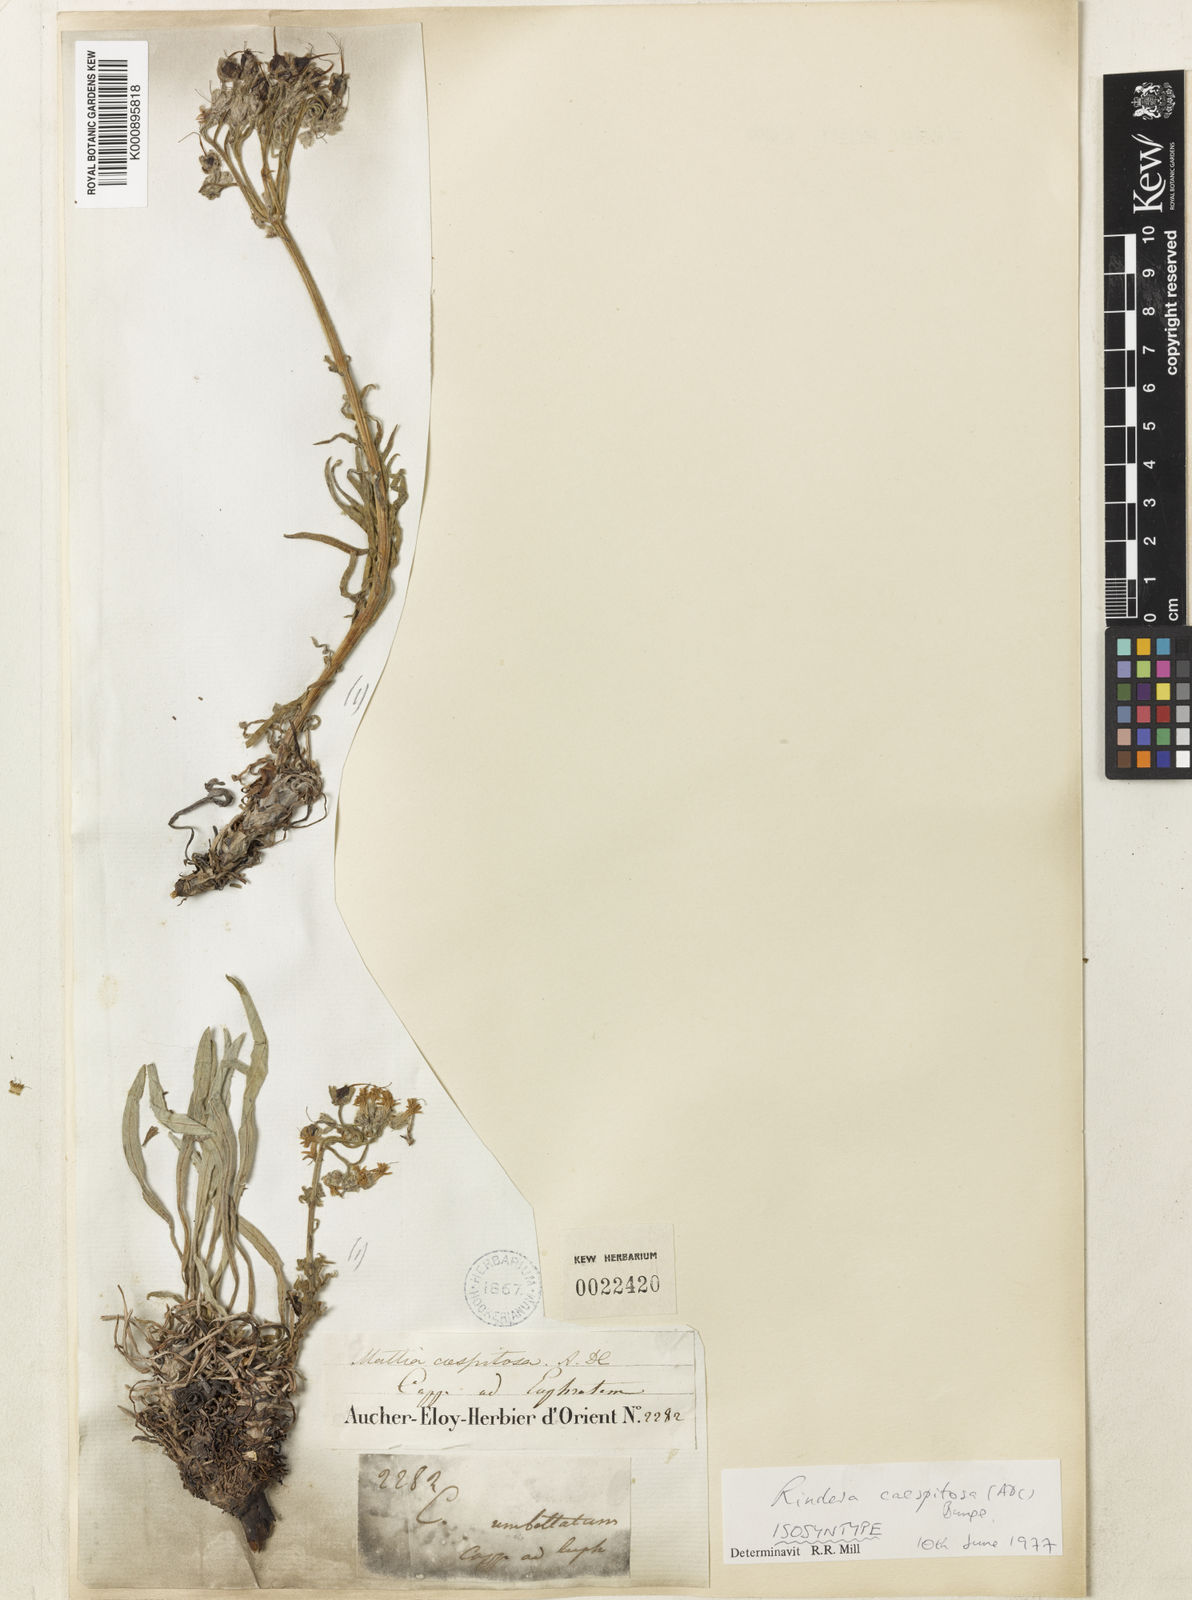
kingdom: Plantae
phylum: Tracheophyta
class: Magnoliopsida
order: Boraginales
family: Boraginaceae
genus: Rindera
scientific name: Rindera
